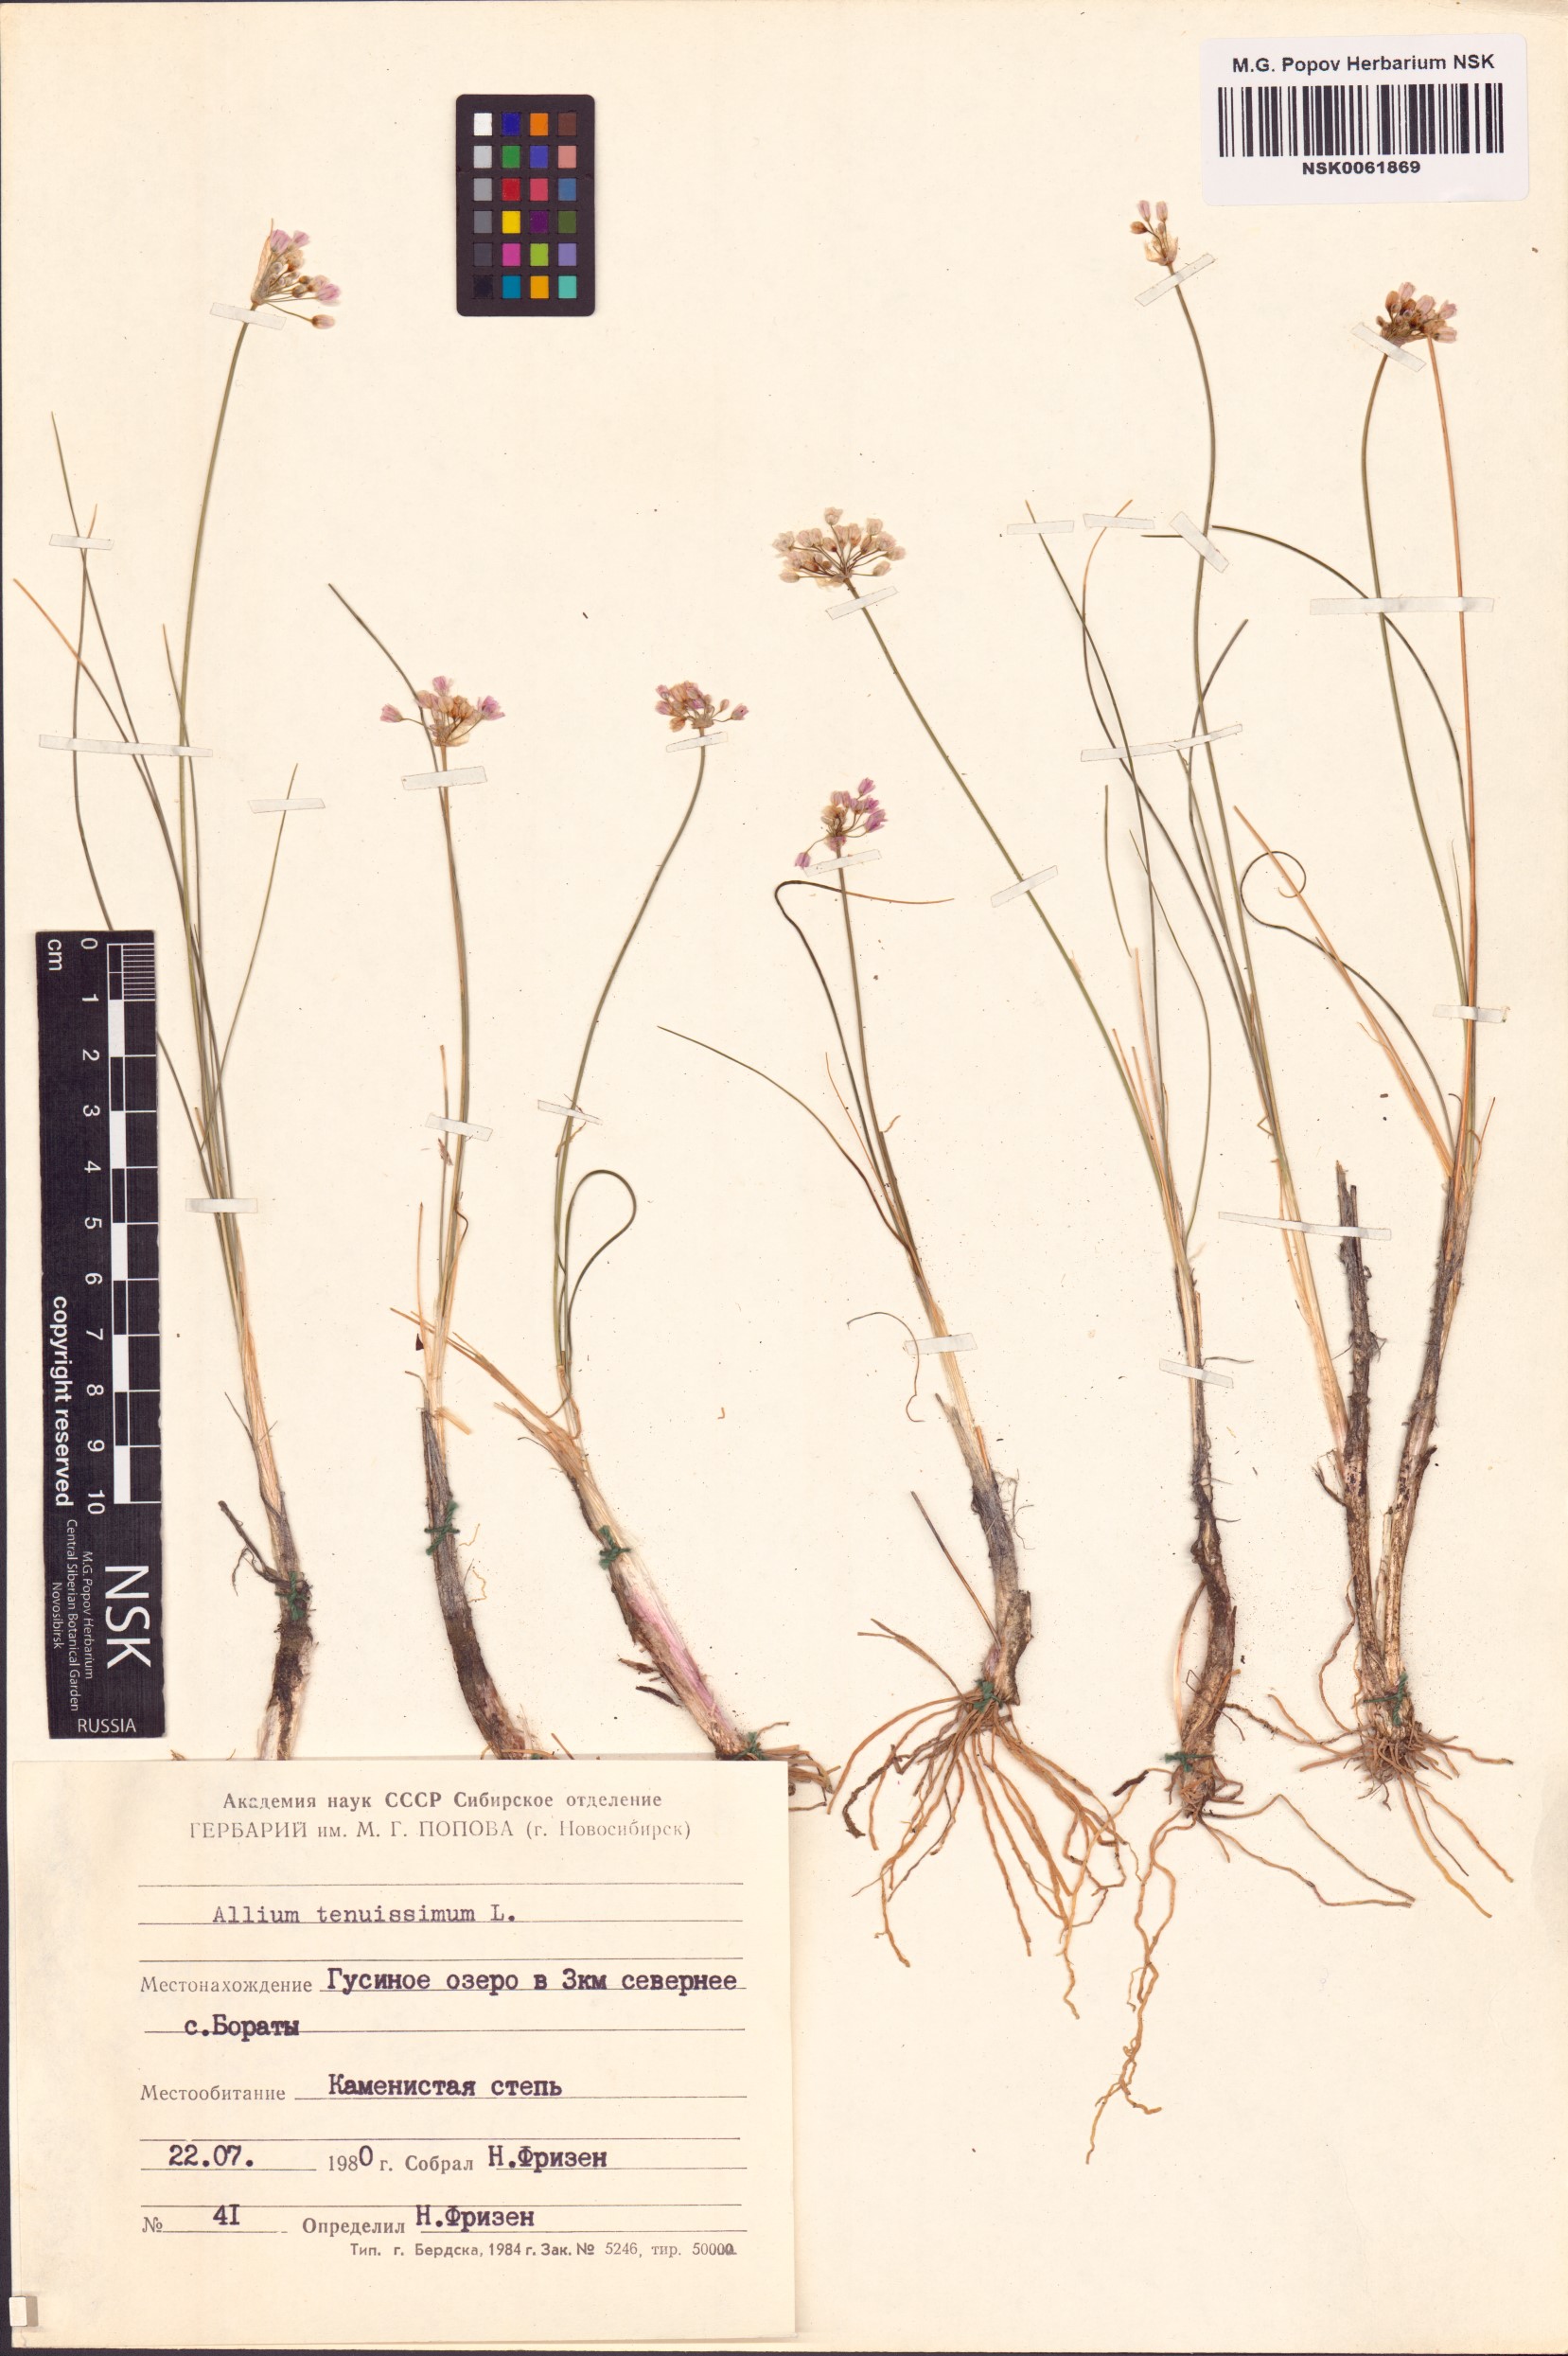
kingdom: Plantae
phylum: Tracheophyta
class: Liliopsida
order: Asparagales
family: Amaryllidaceae
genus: Allium
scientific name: Allium tenuissimum
